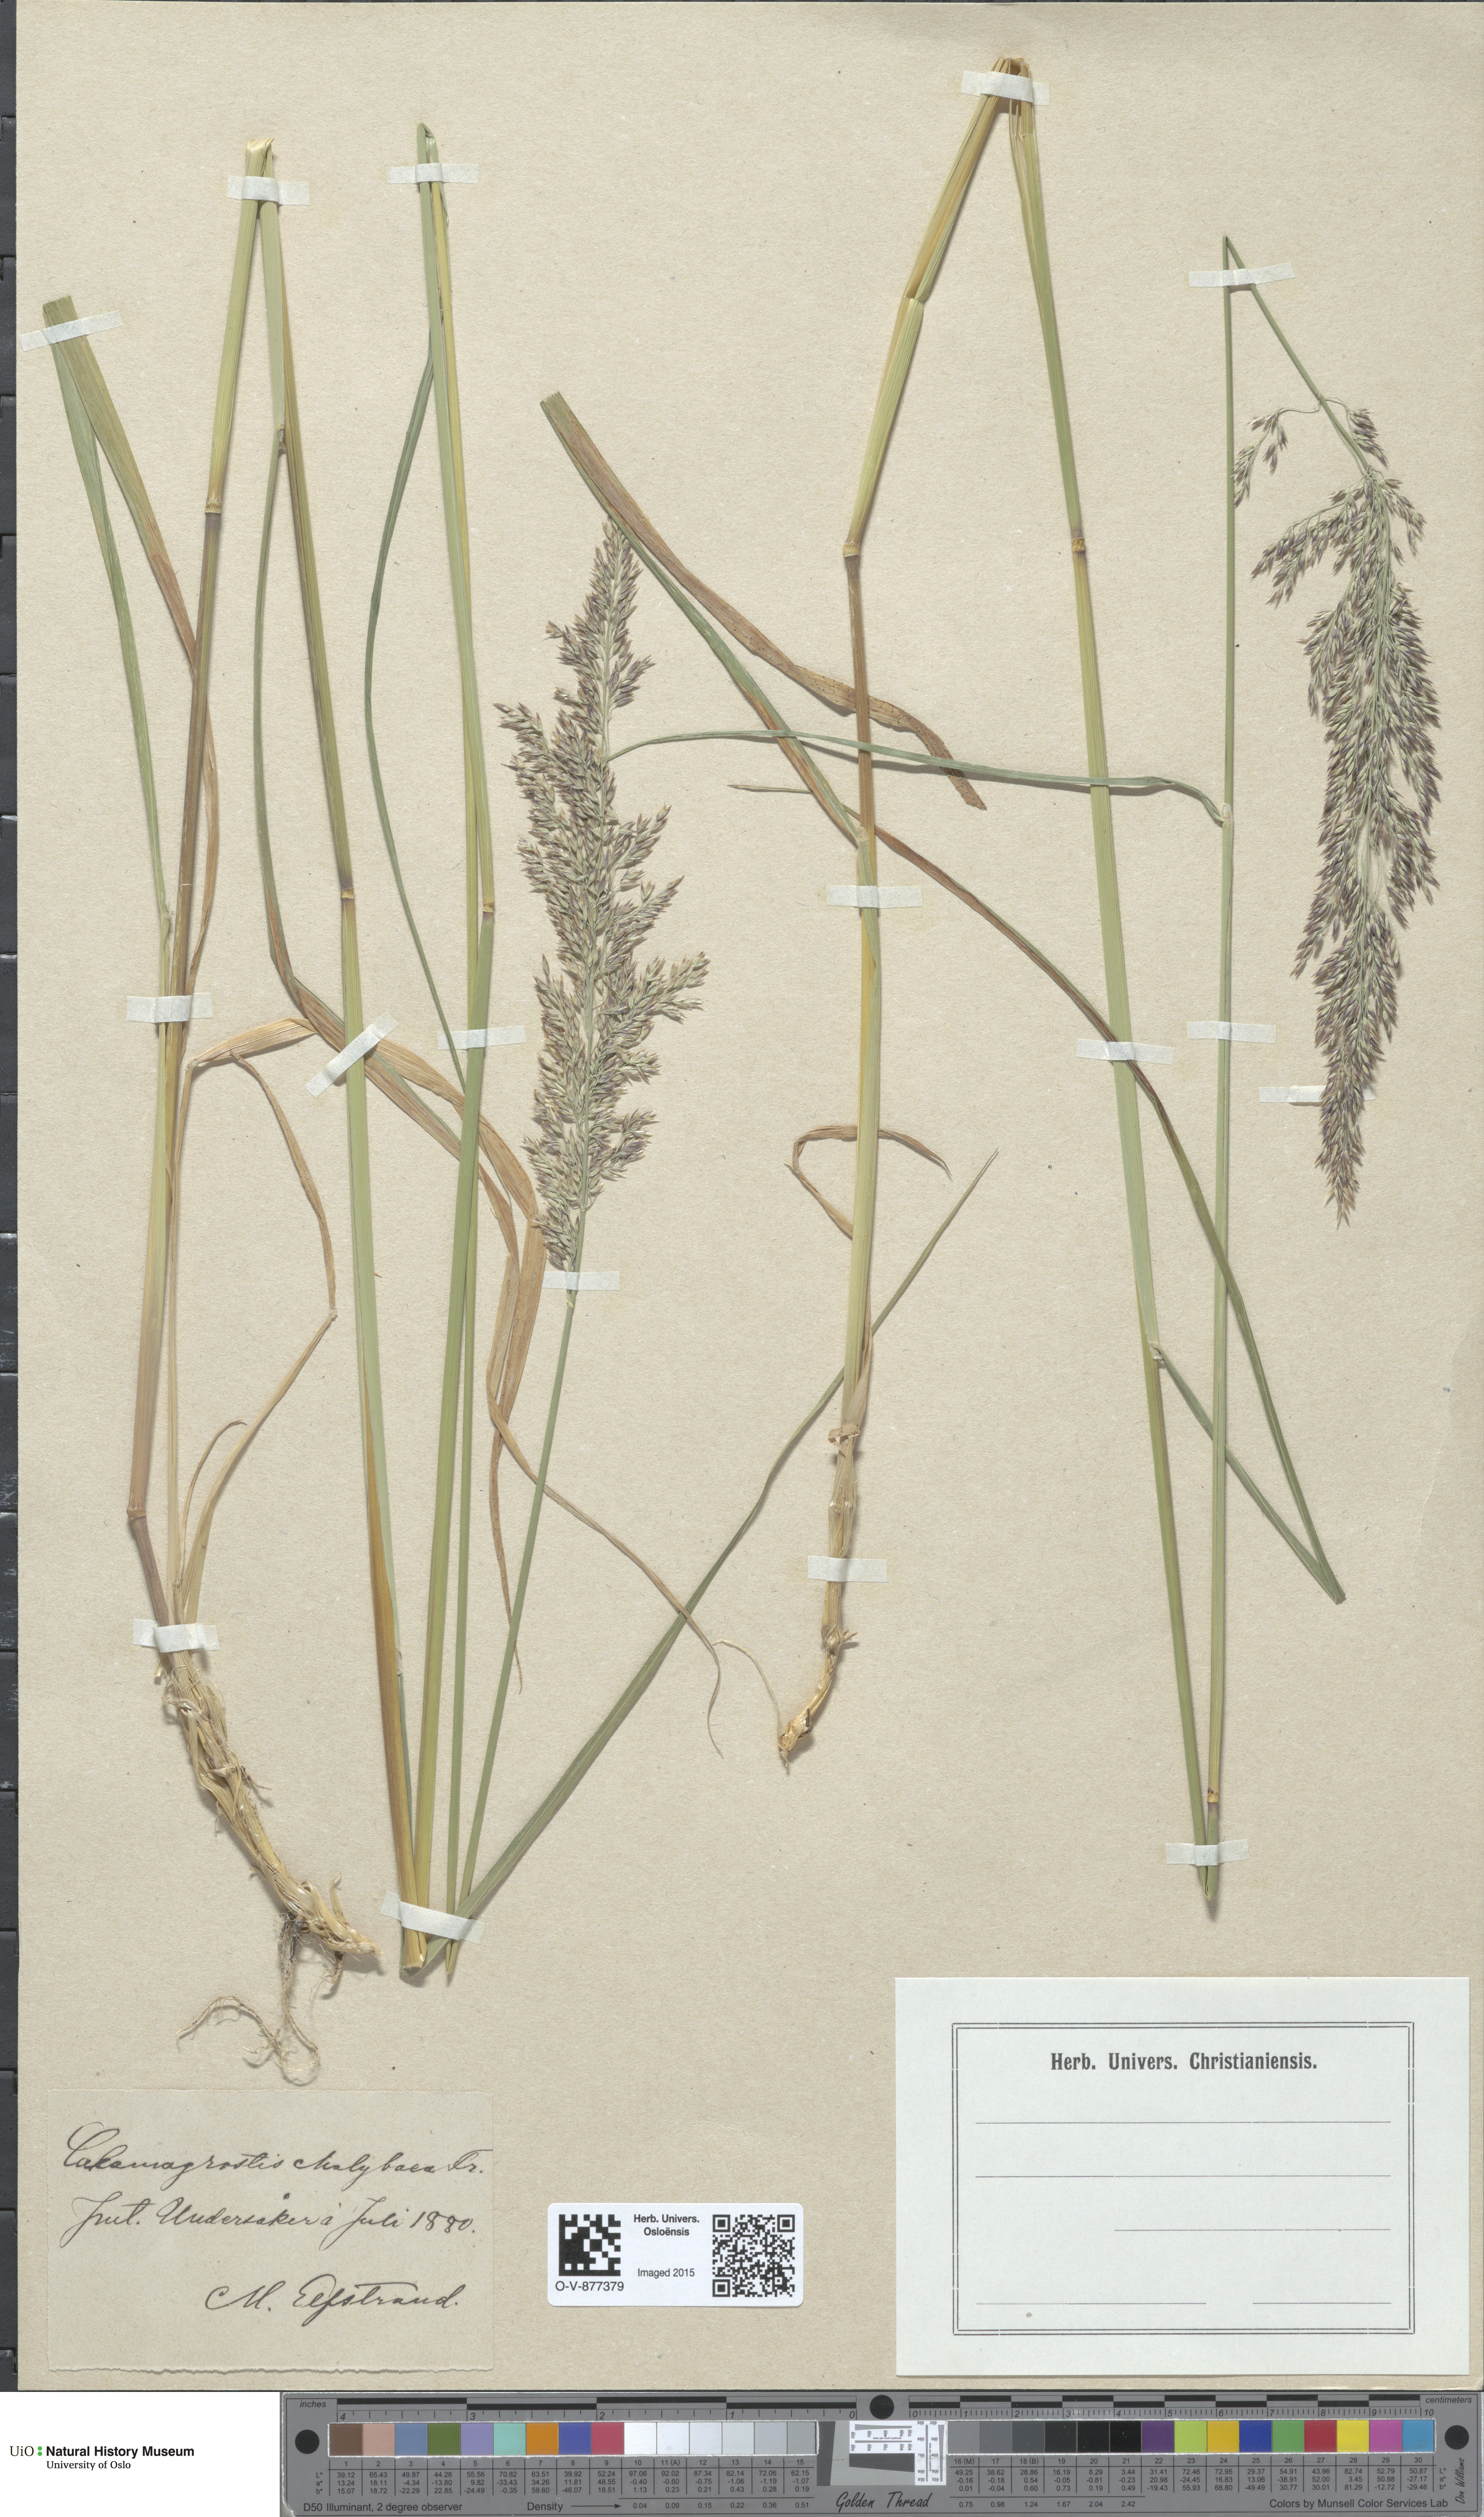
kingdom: Plantae
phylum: Tracheophyta
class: Liliopsida
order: Poales
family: Poaceae
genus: Calamagrostis
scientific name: Calamagrostis chalybaea
